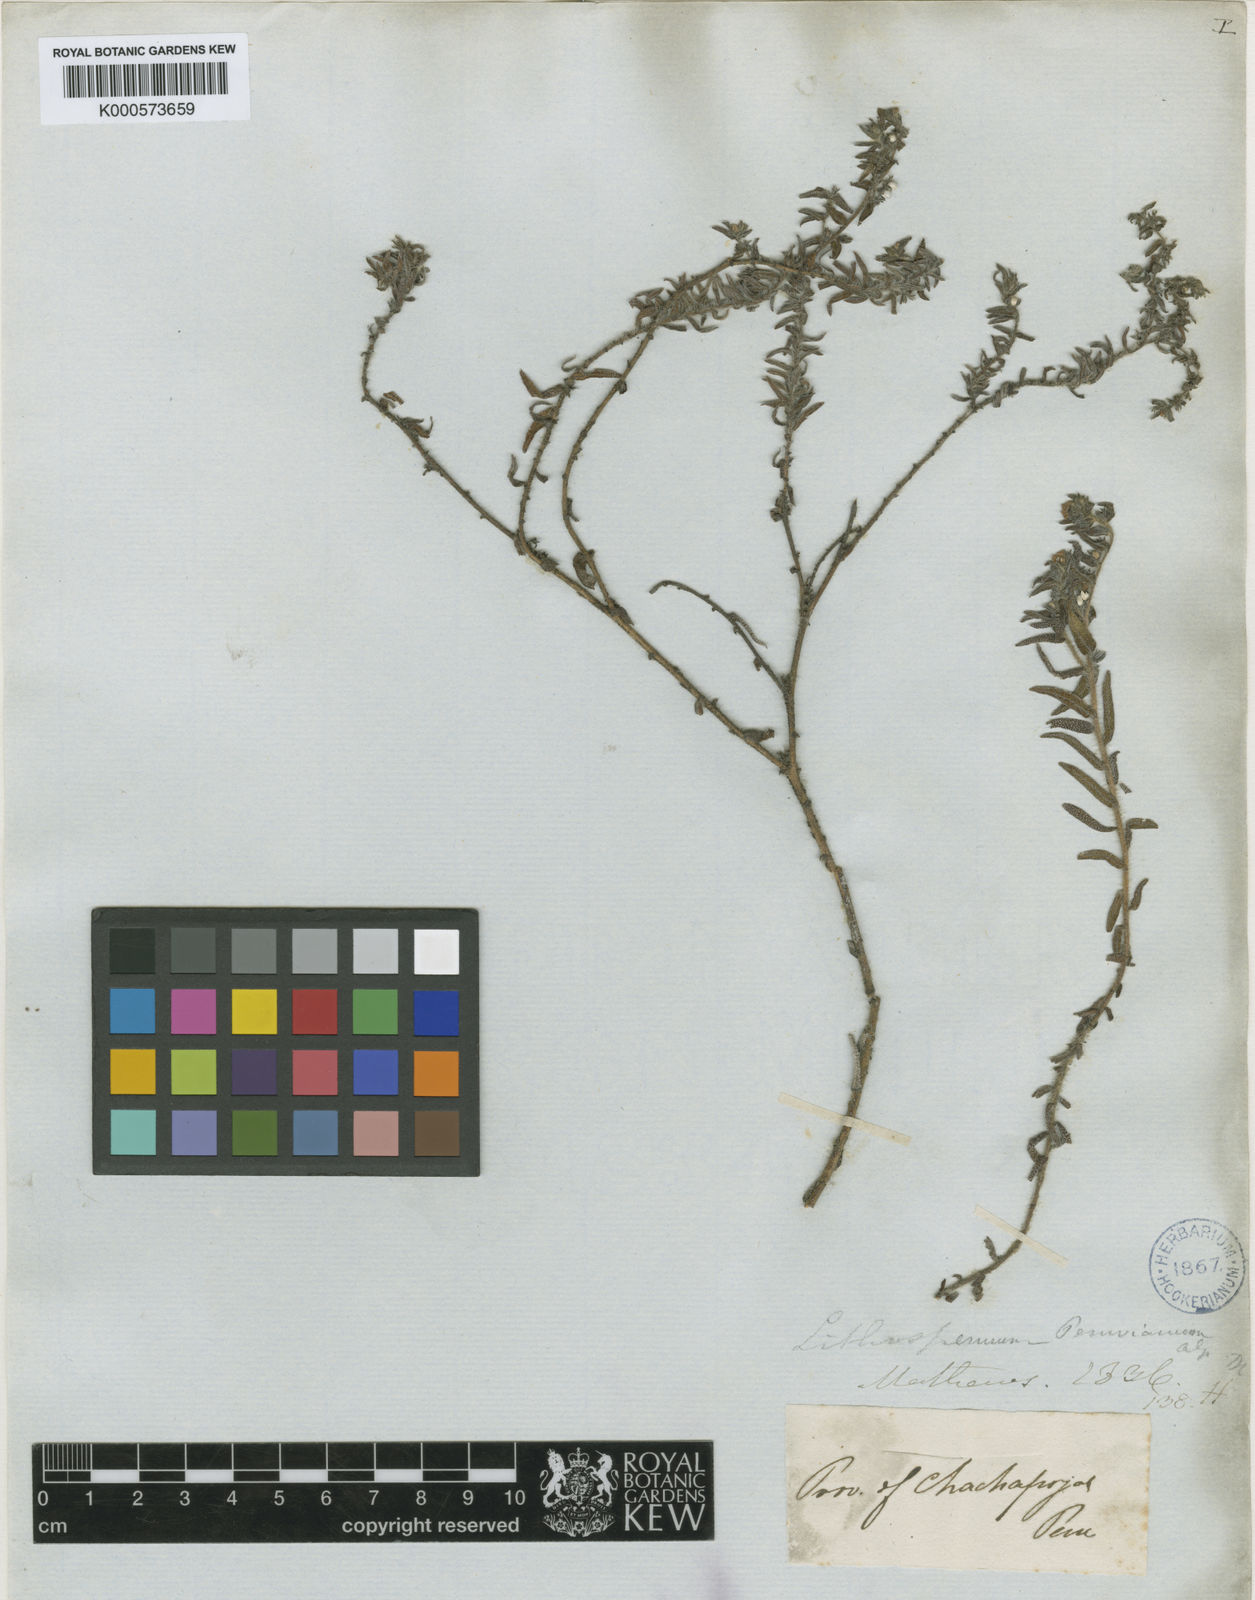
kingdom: Plantae
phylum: Tracheophyta
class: Magnoliopsida
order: Boraginales
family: Boraginaceae
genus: Lithospermum
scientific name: Lithospermum peruvianum
